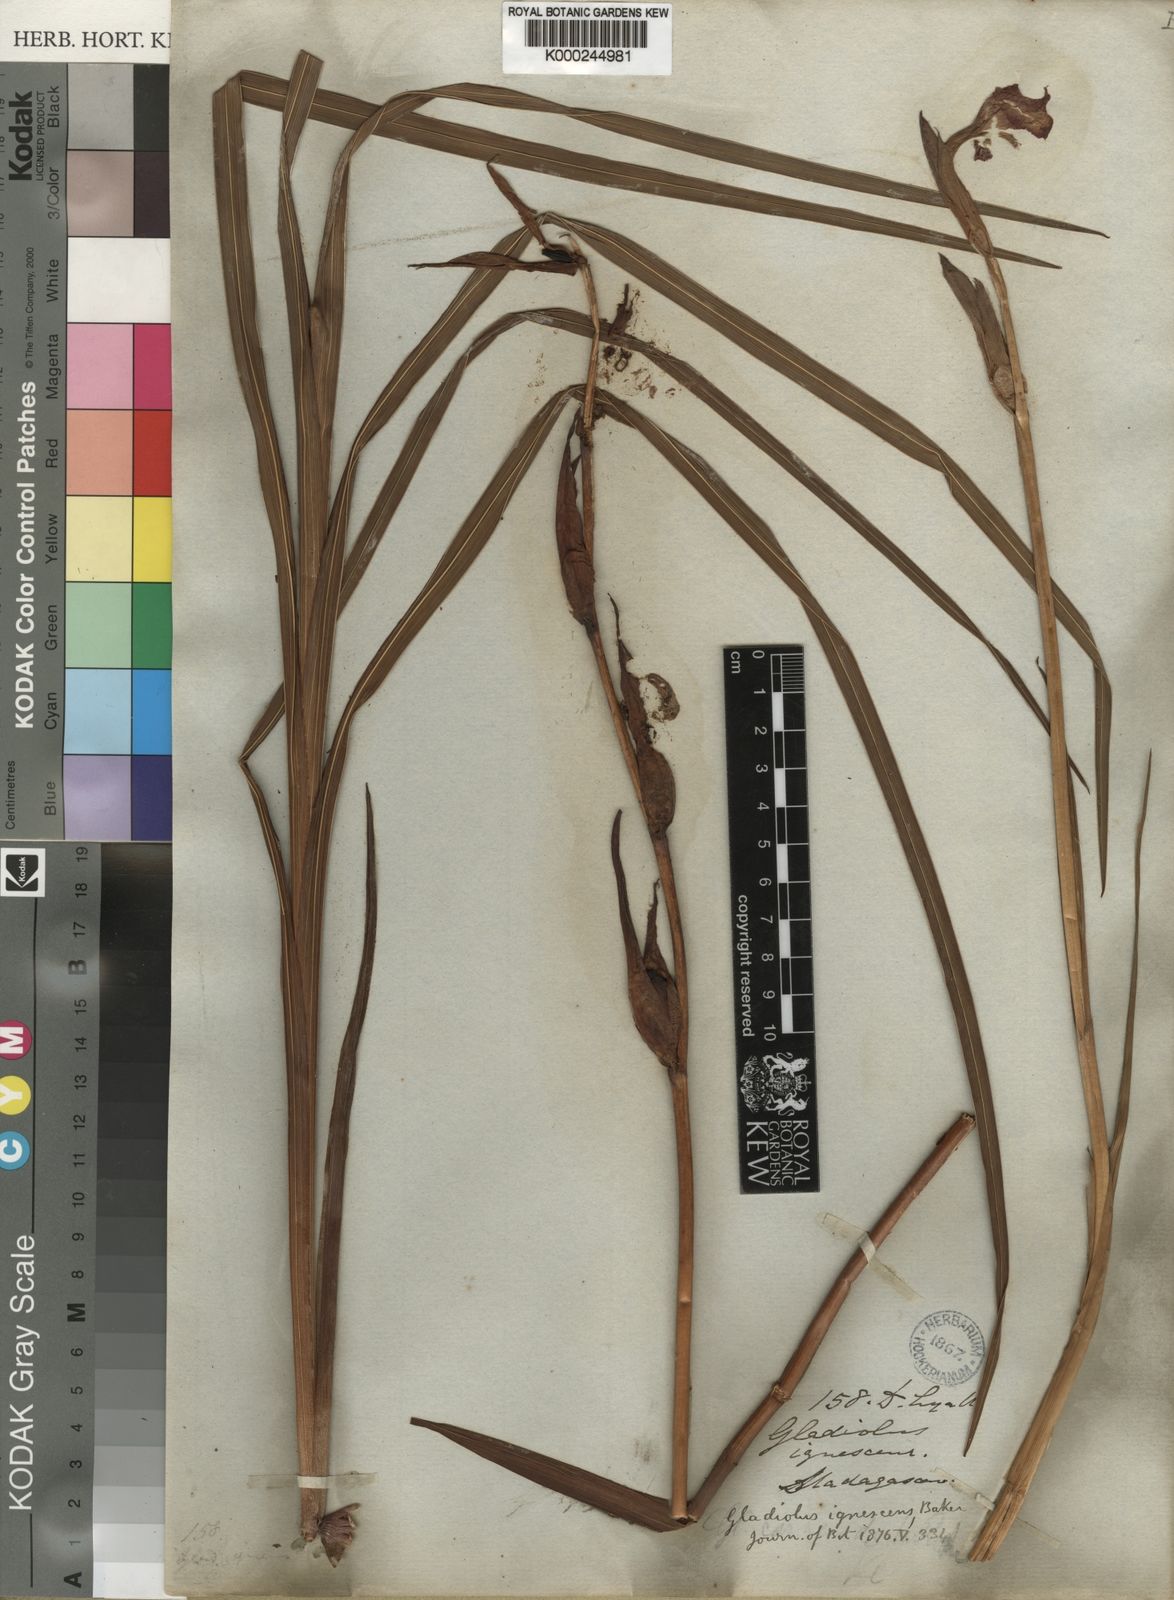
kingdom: Plantae
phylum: Tracheophyta
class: Liliopsida
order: Asparagales
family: Iridaceae
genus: Gladiolus
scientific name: Gladiolus watsonioides
